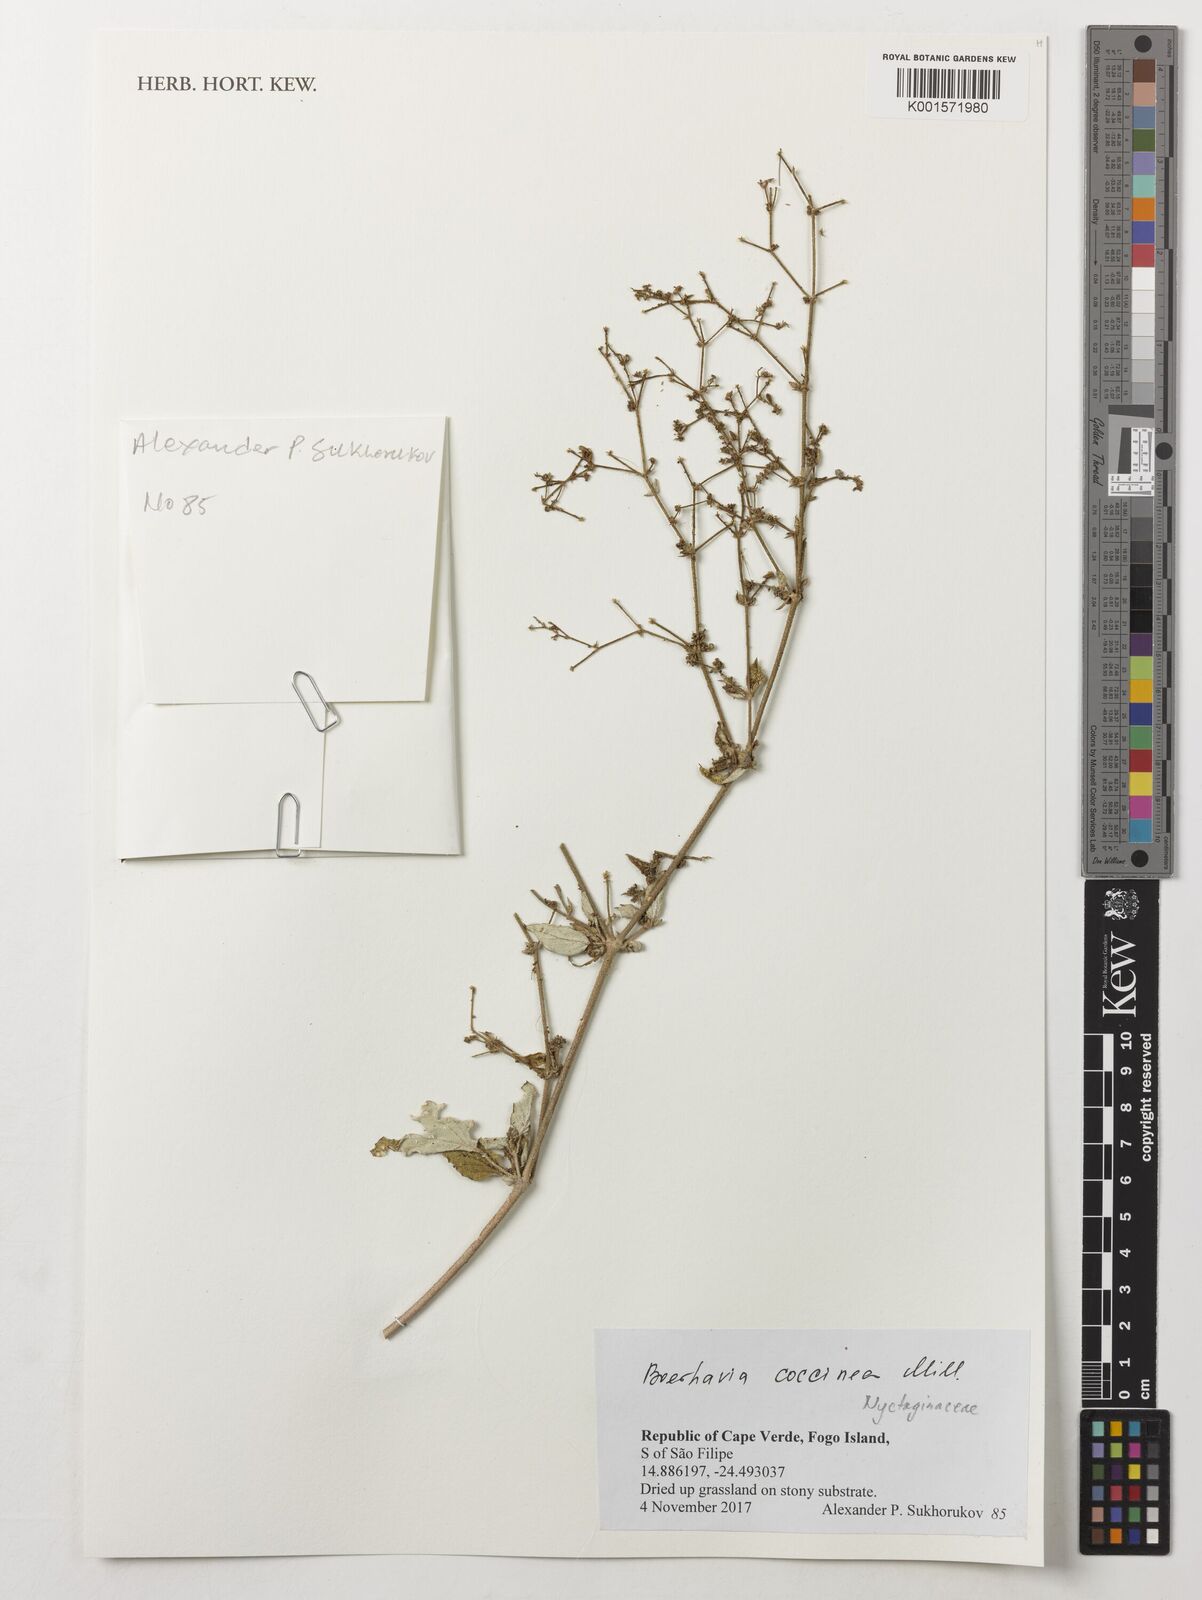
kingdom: Plantae
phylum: Tracheophyta
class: Magnoliopsida
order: Caryophyllales
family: Nyctaginaceae
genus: Boerhavia
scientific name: Boerhavia coccinea
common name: Scarlet spiderling
